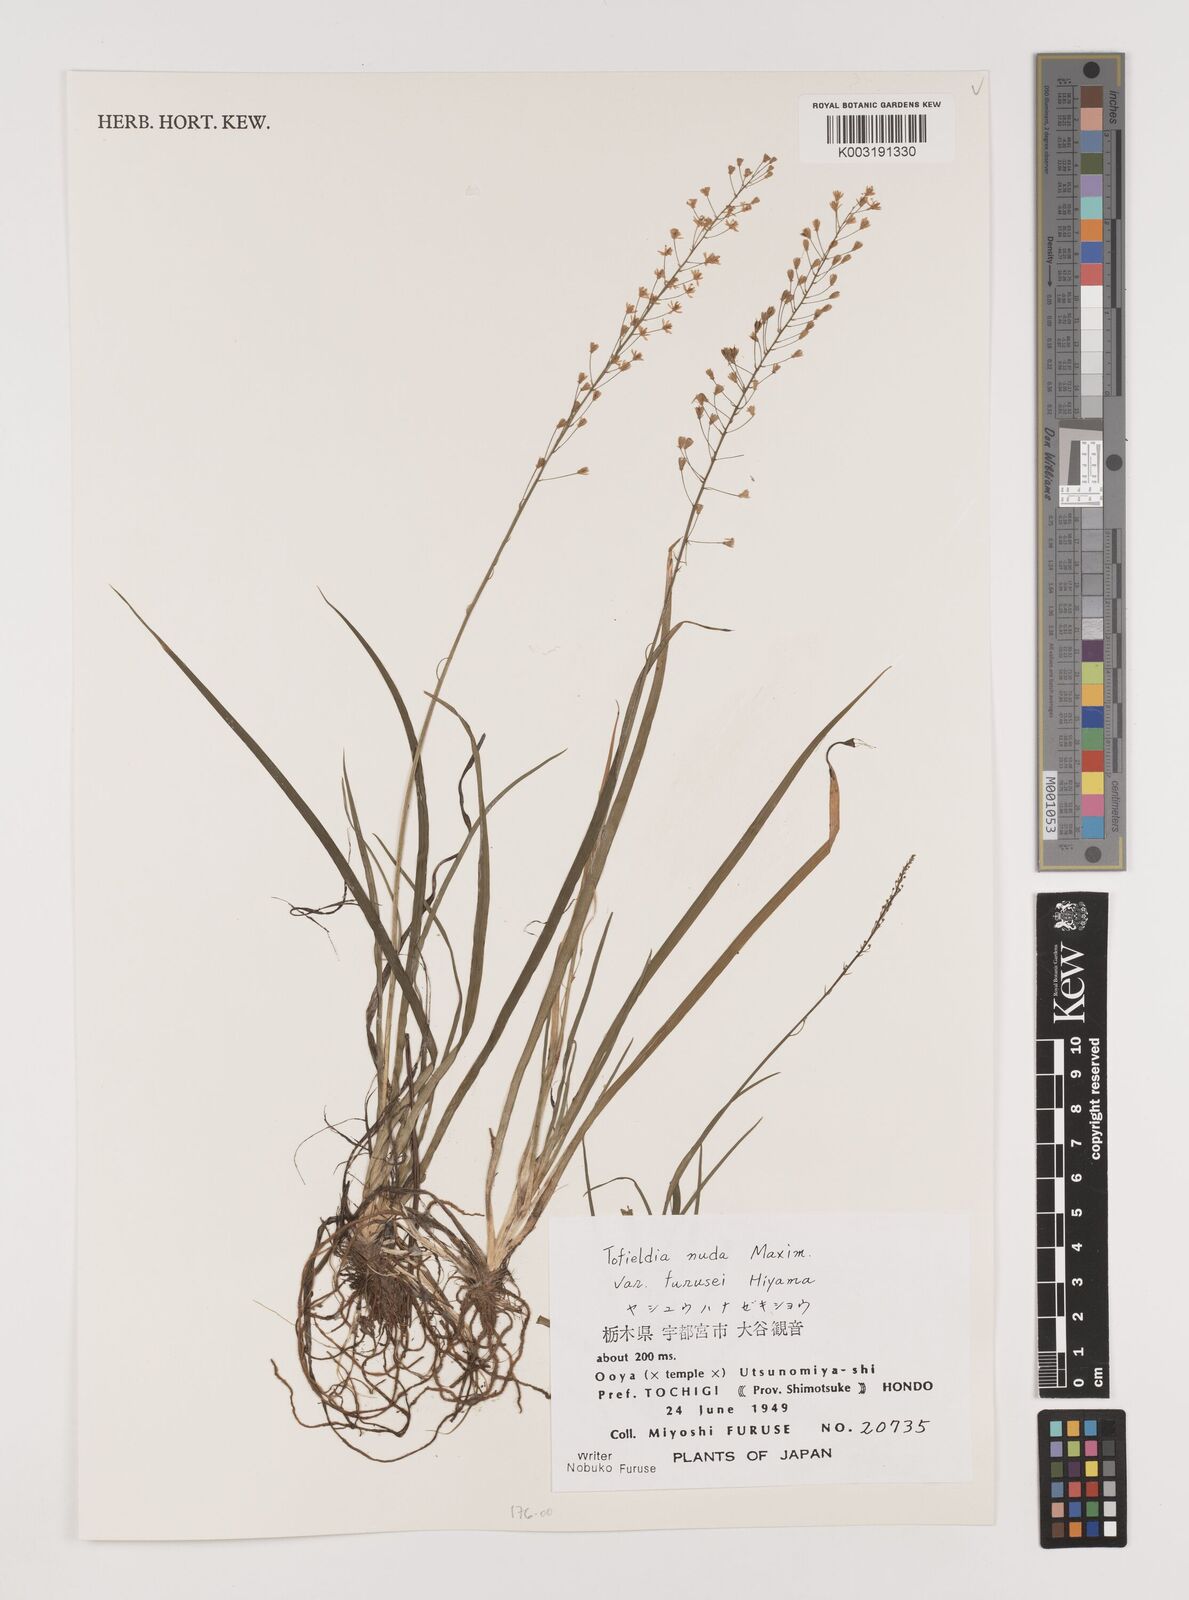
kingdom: Plantae
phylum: Tracheophyta
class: Liliopsida
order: Alismatales
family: Tofieldiaceae
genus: Tofieldia
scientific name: Tofieldia furusei
